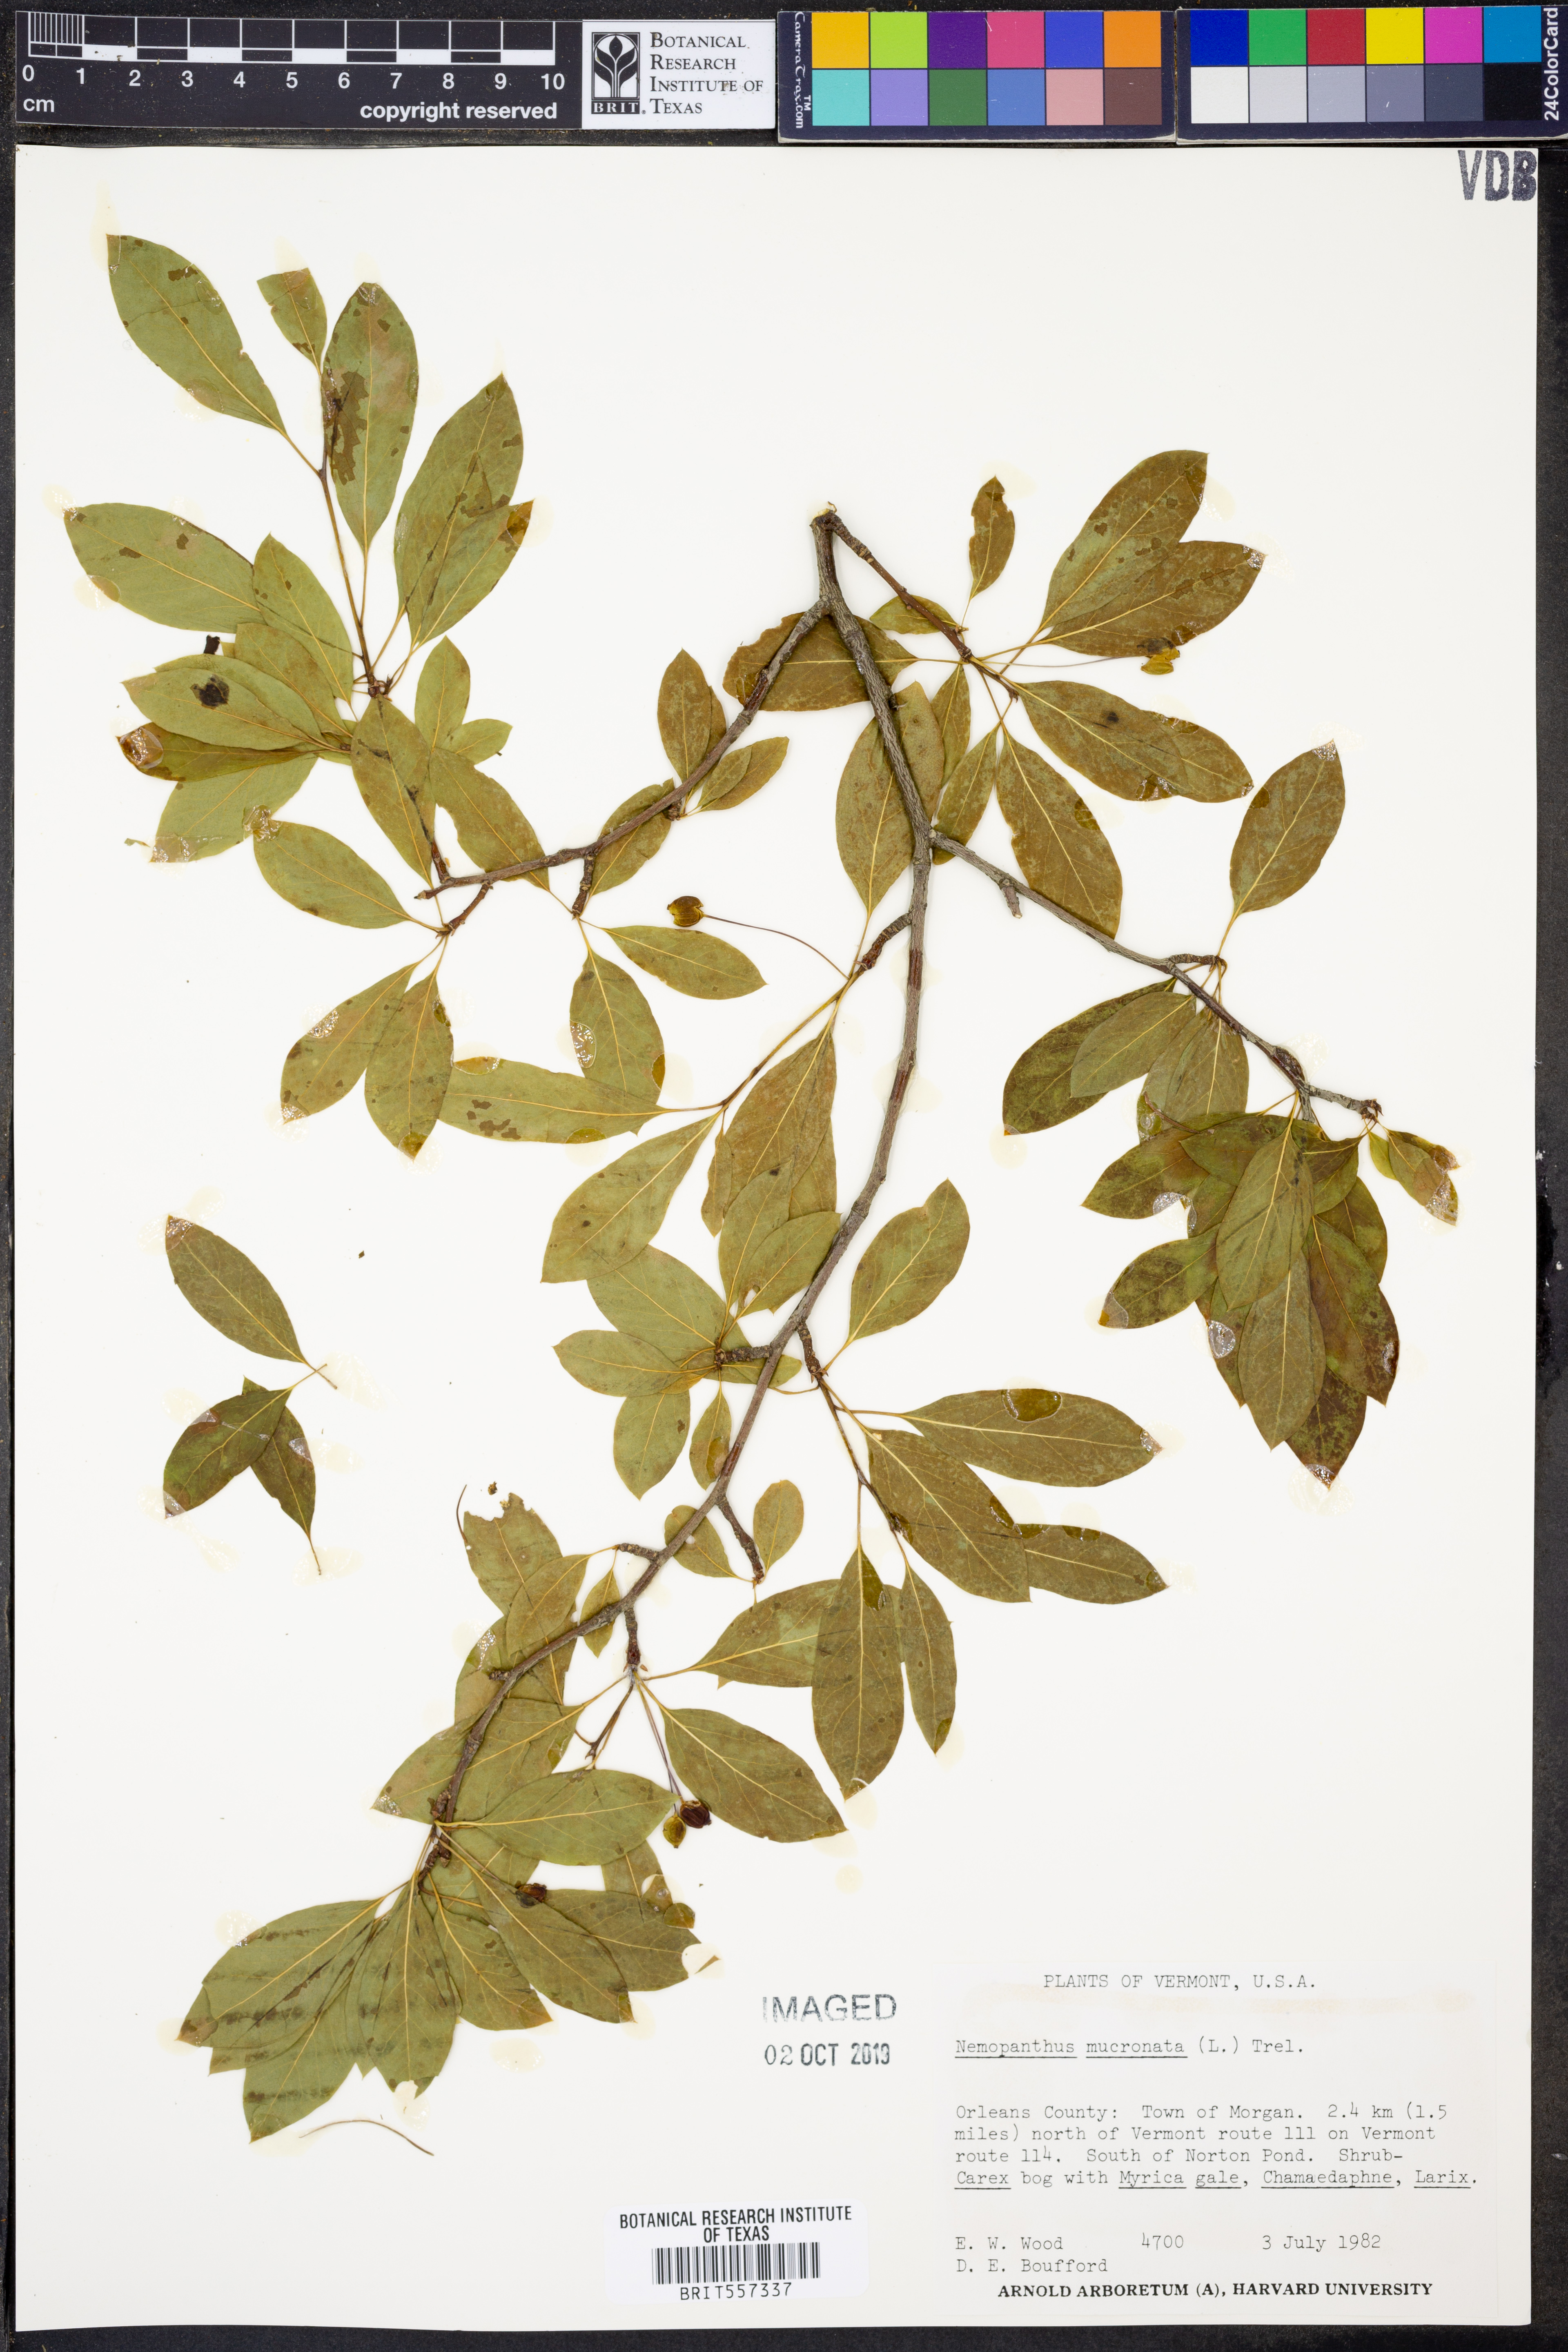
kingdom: Plantae
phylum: Tracheophyta
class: Magnoliopsida
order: Aquifoliales
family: Aquifoliaceae
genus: Ilex
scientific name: Ilex mucronata
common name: Catberry
